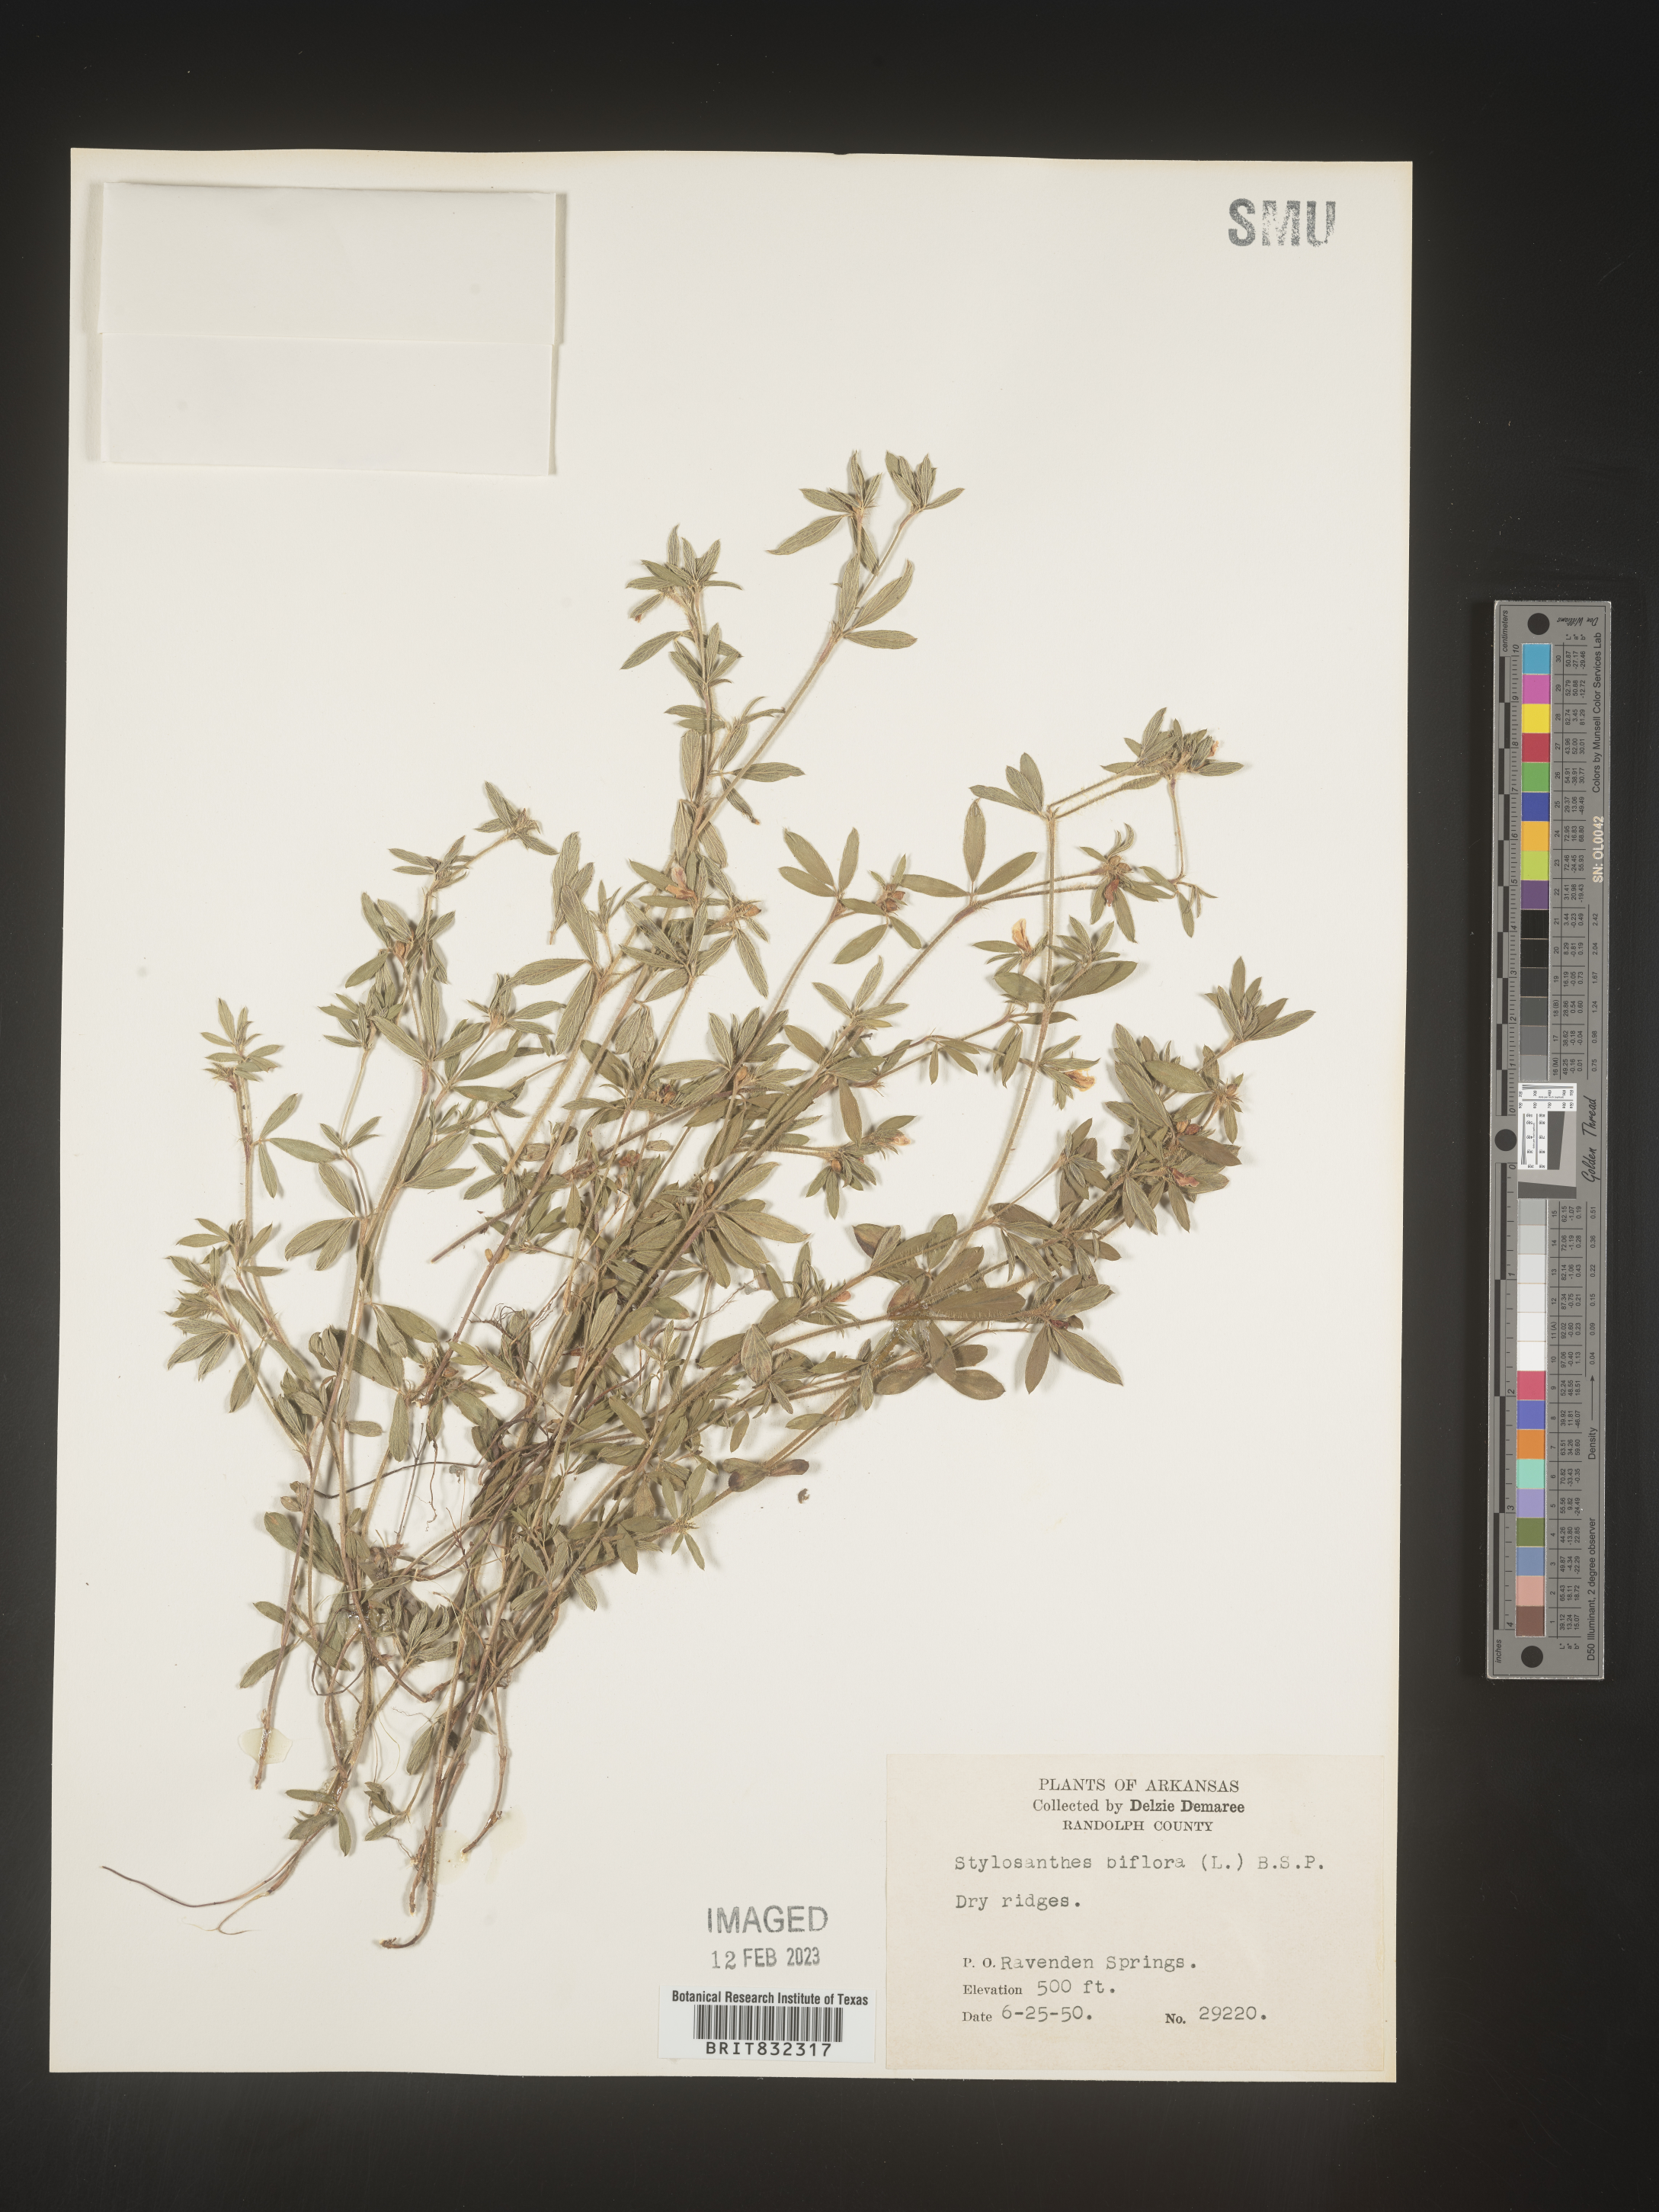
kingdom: Plantae
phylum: Tracheophyta
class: Magnoliopsida
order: Fabales
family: Fabaceae
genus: Stylosanthes
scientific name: Stylosanthes biflora
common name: Two-flower pencil-flower
